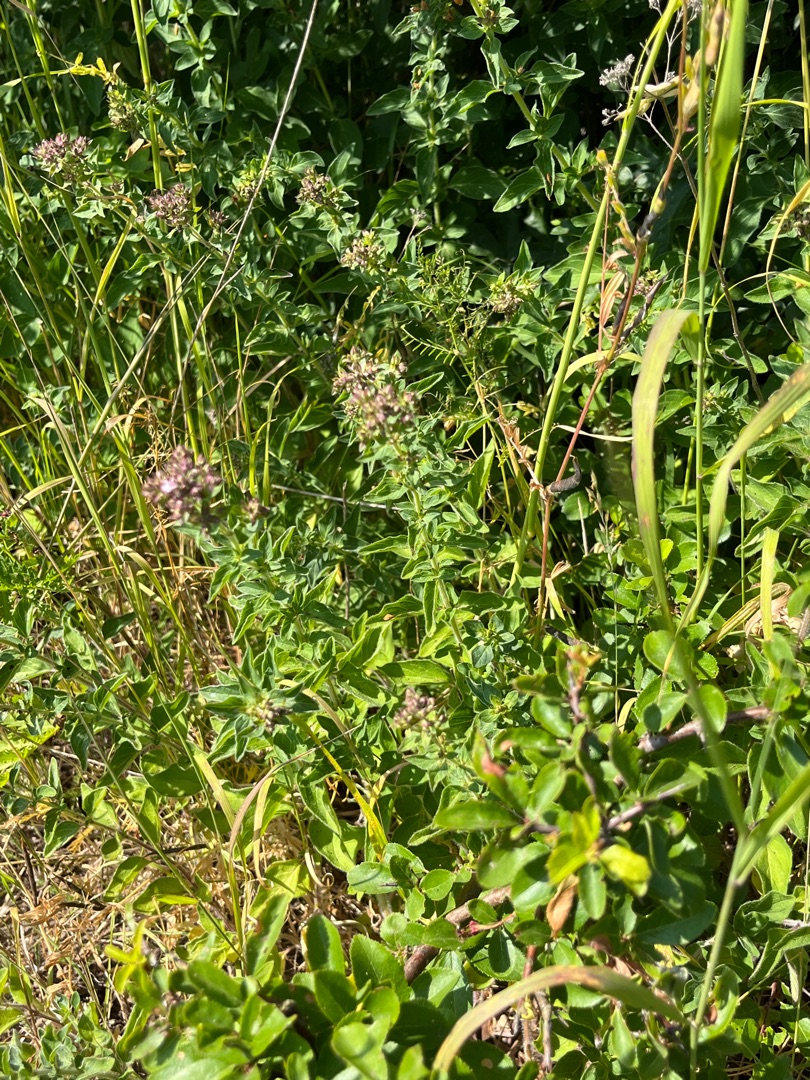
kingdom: Plantae
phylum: Tracheophyta
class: Magnoliopsida
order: Lamiales
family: Lamiaceae
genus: Origanum
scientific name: Origanum vulgare
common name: Merian
